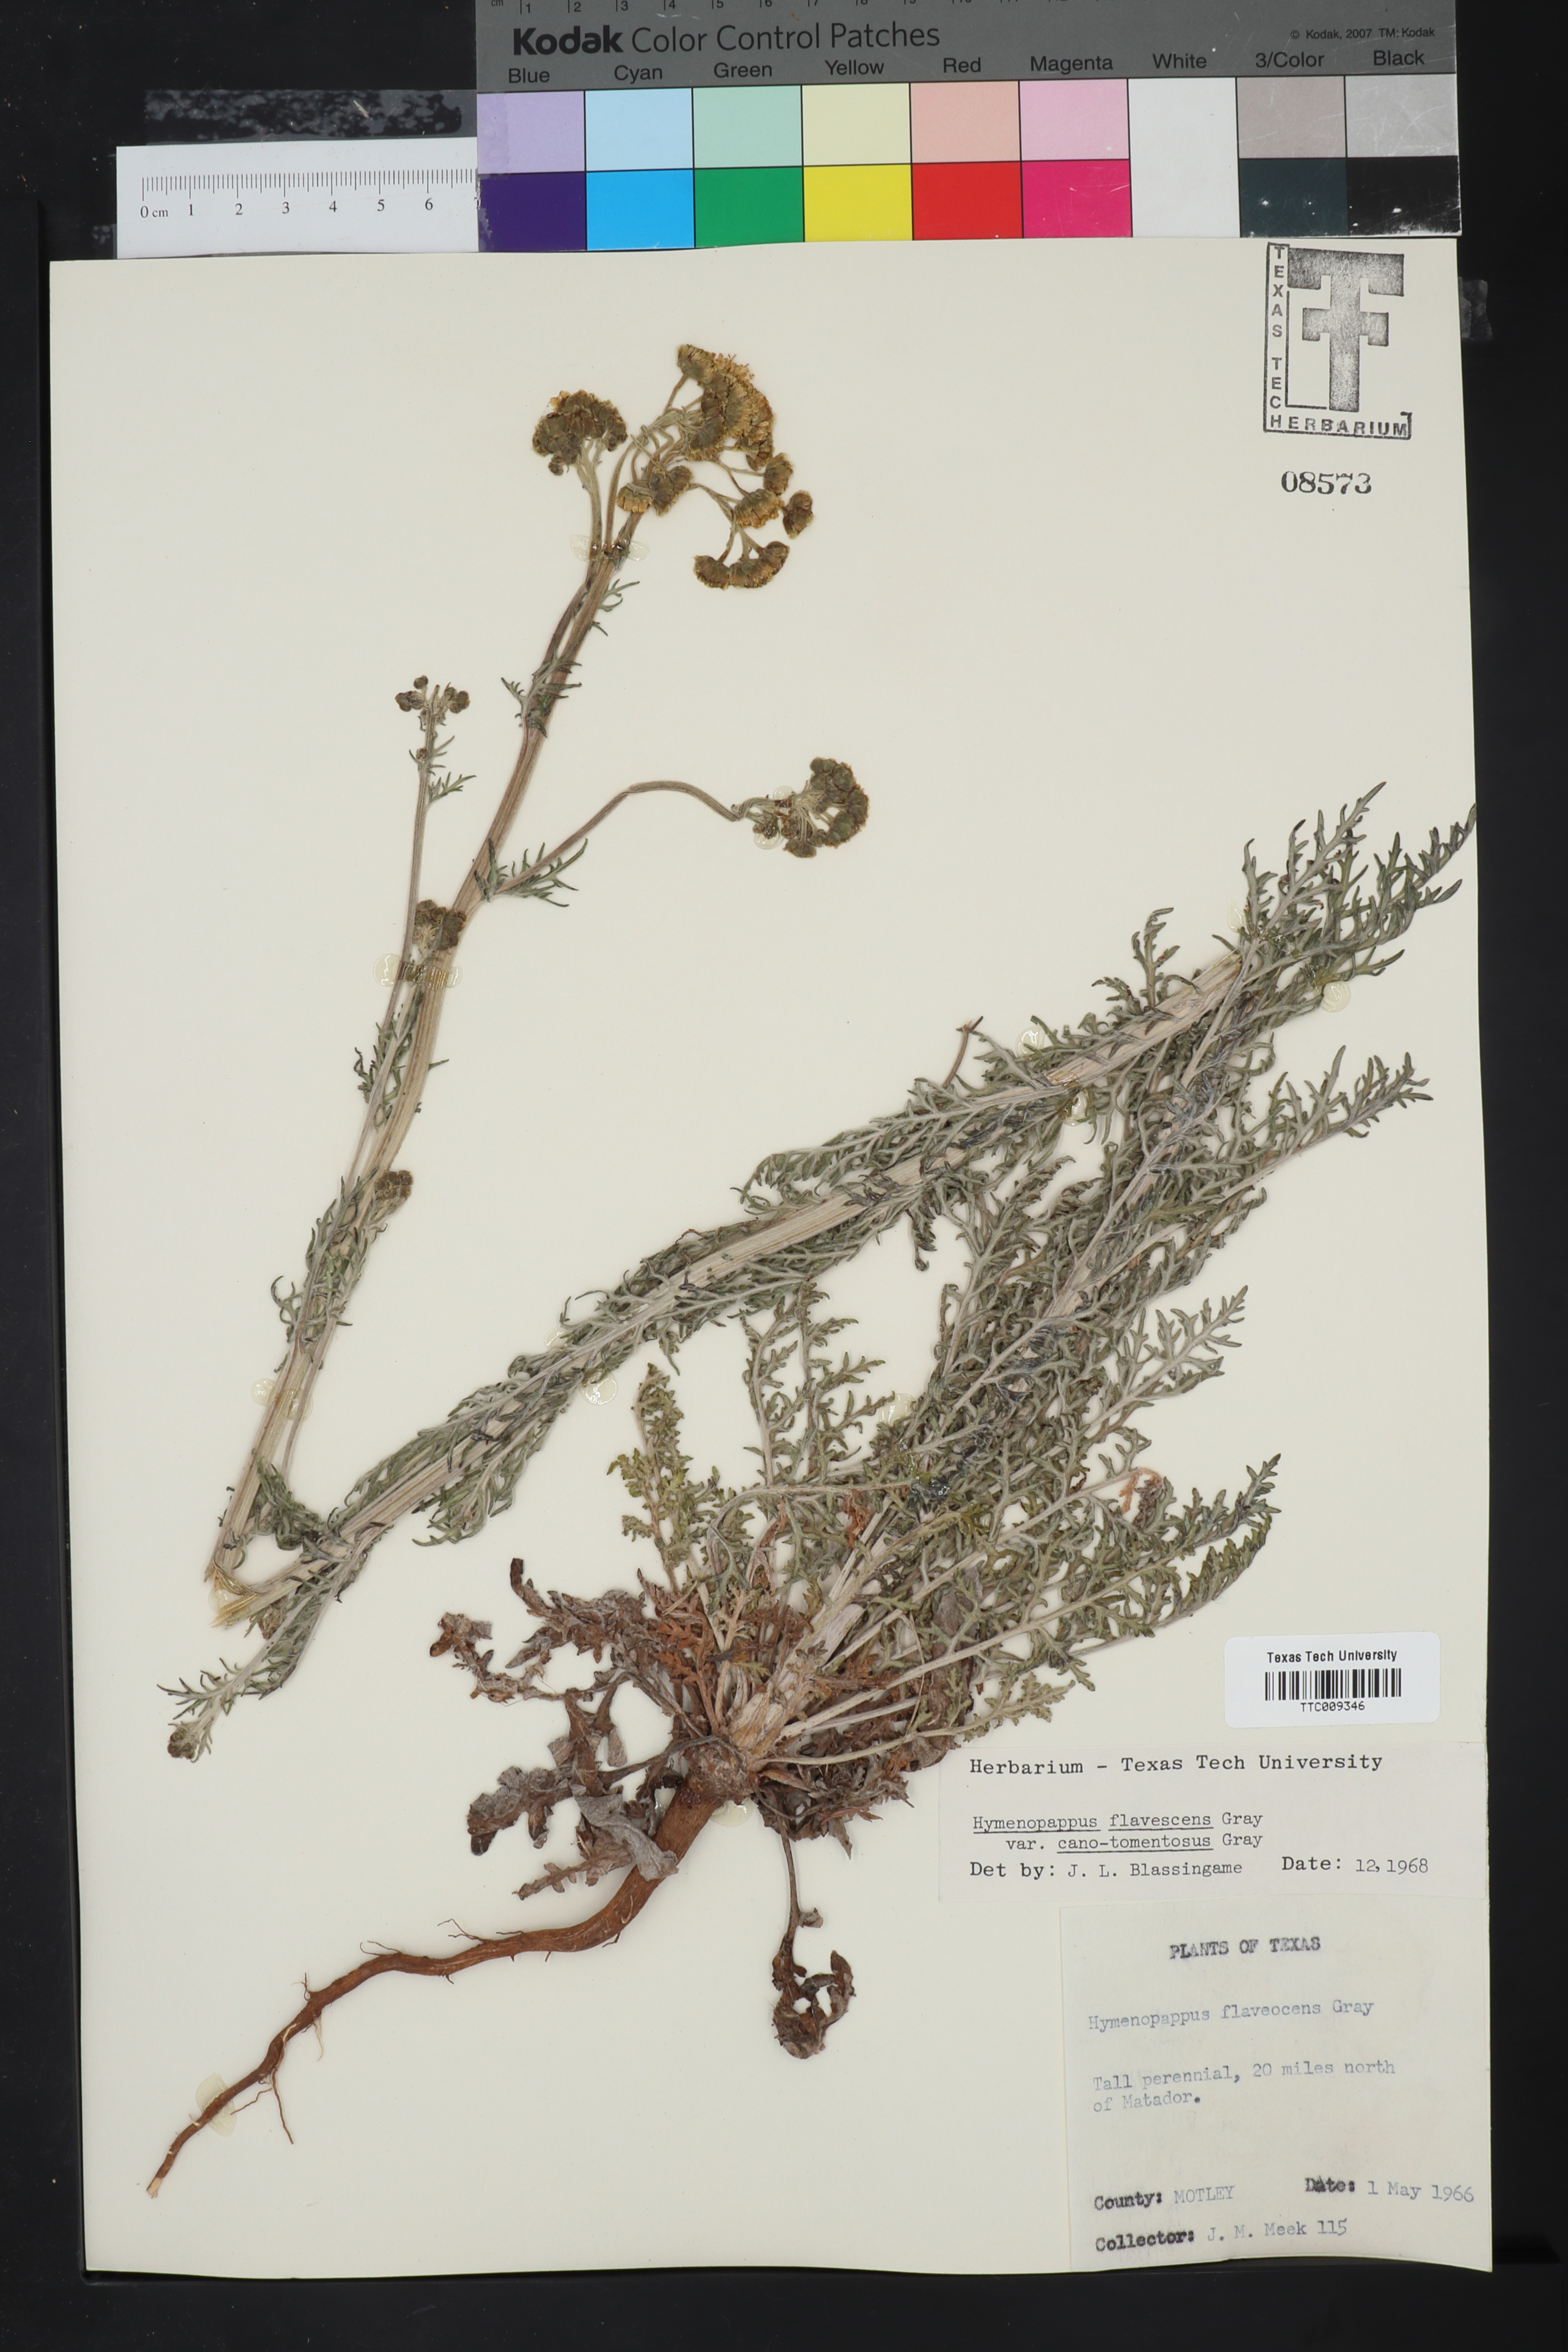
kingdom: Plantae
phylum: Tracheophyta
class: Magnoliopsida
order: Asterales
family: Asteraceae
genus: Hymenopappus
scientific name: Hymenopappus flavescens
